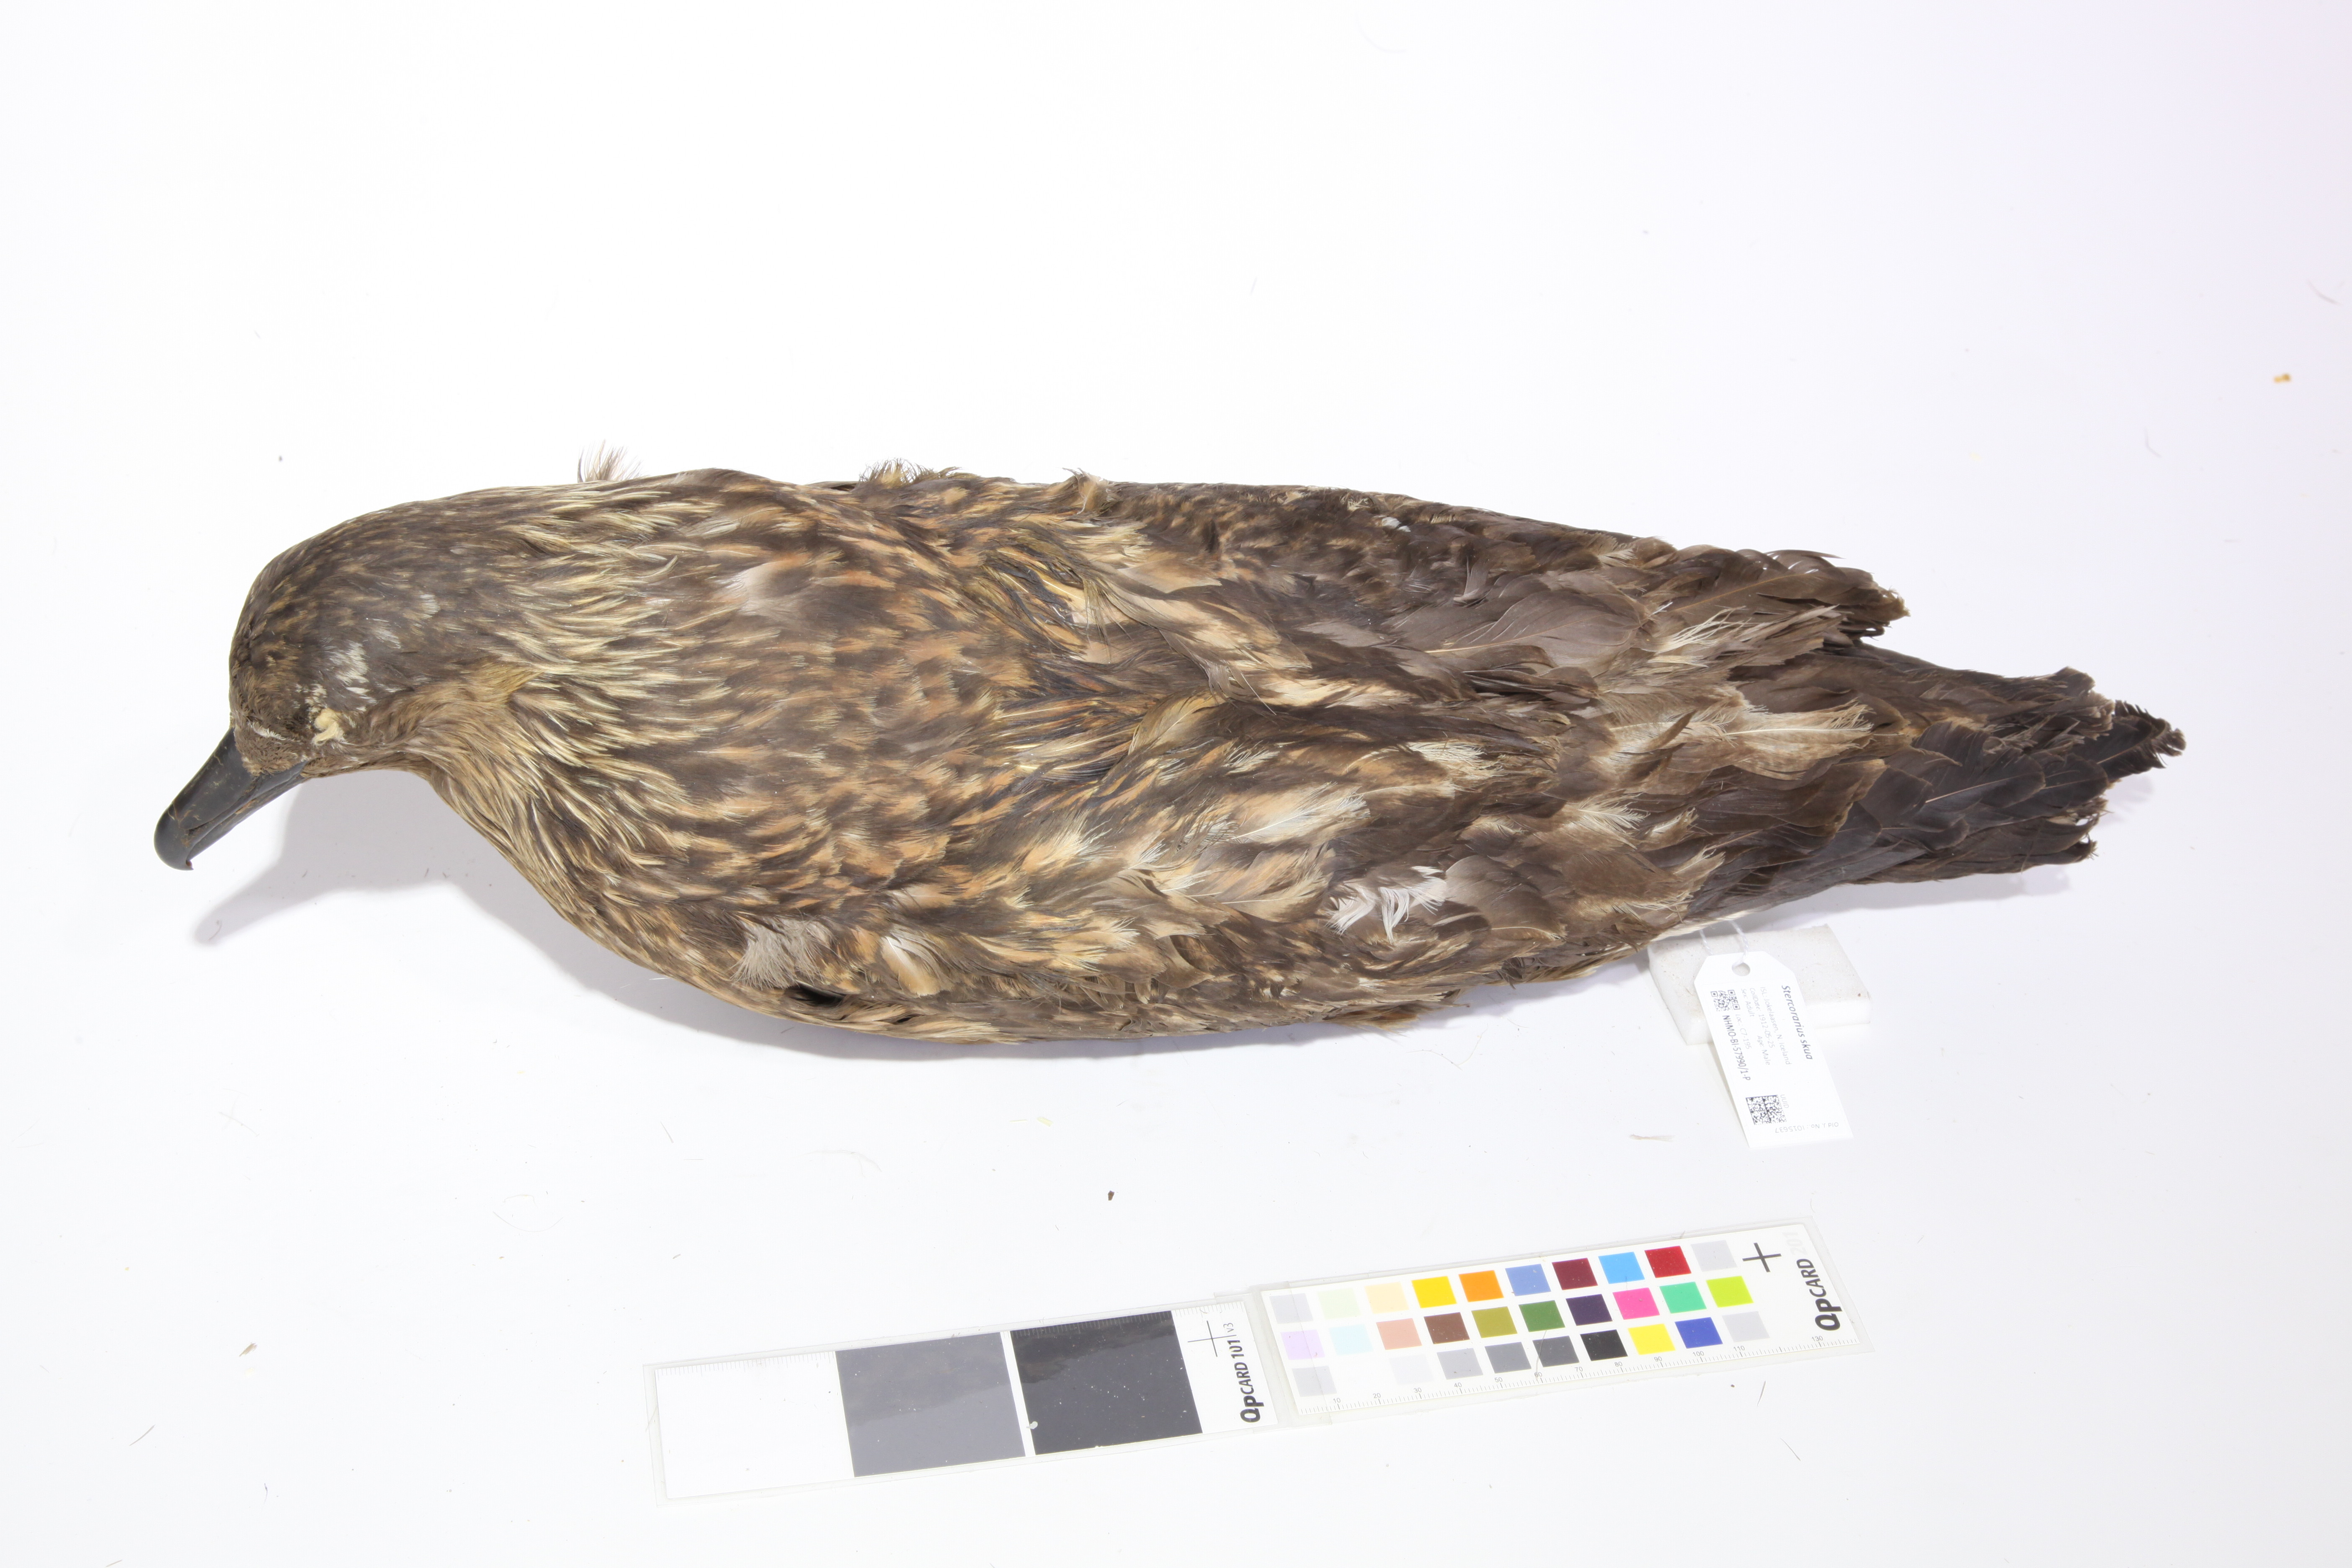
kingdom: Animalia
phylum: Chordata
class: Aves
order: Charadriiformes
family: Stercorariidae
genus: Stercorarius
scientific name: Stercorarius skua
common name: Great skua
